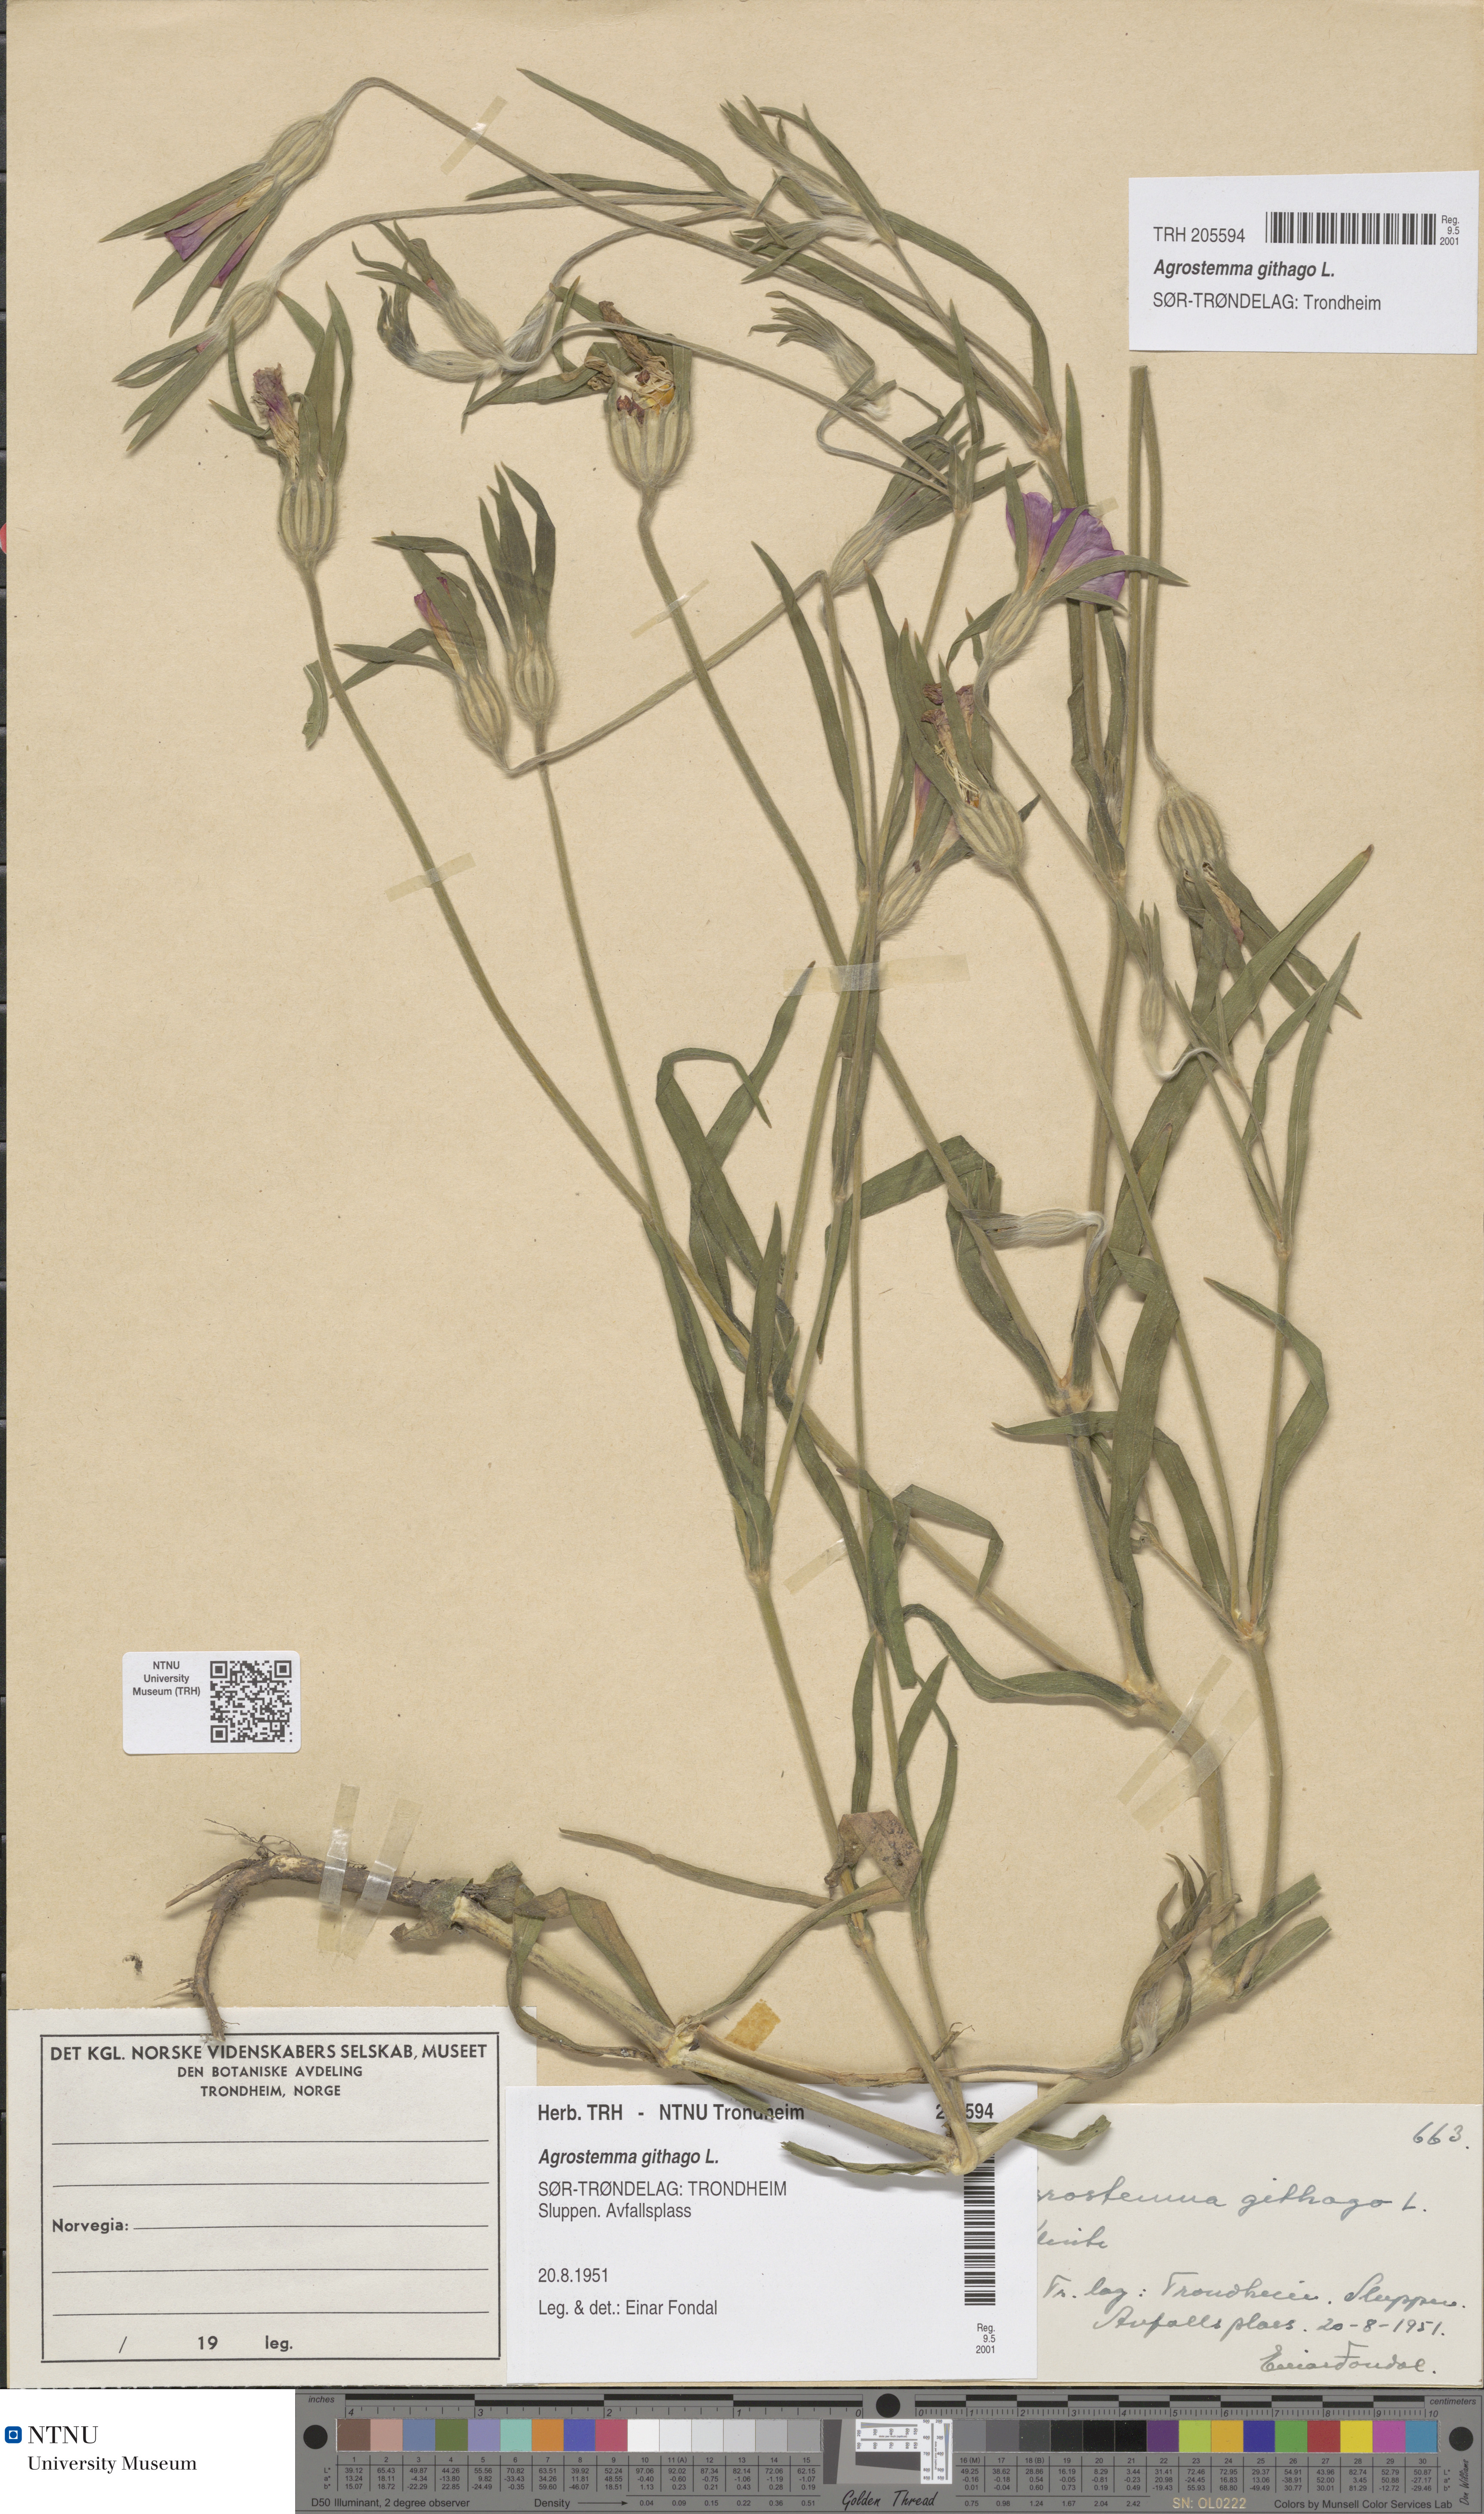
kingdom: Plantae
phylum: Tracheophyta
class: Magnoliopsida
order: Caryophyllales
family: Caryophyllaceae
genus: Agrostemma
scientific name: Agrostemma githago
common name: Common corncockle
